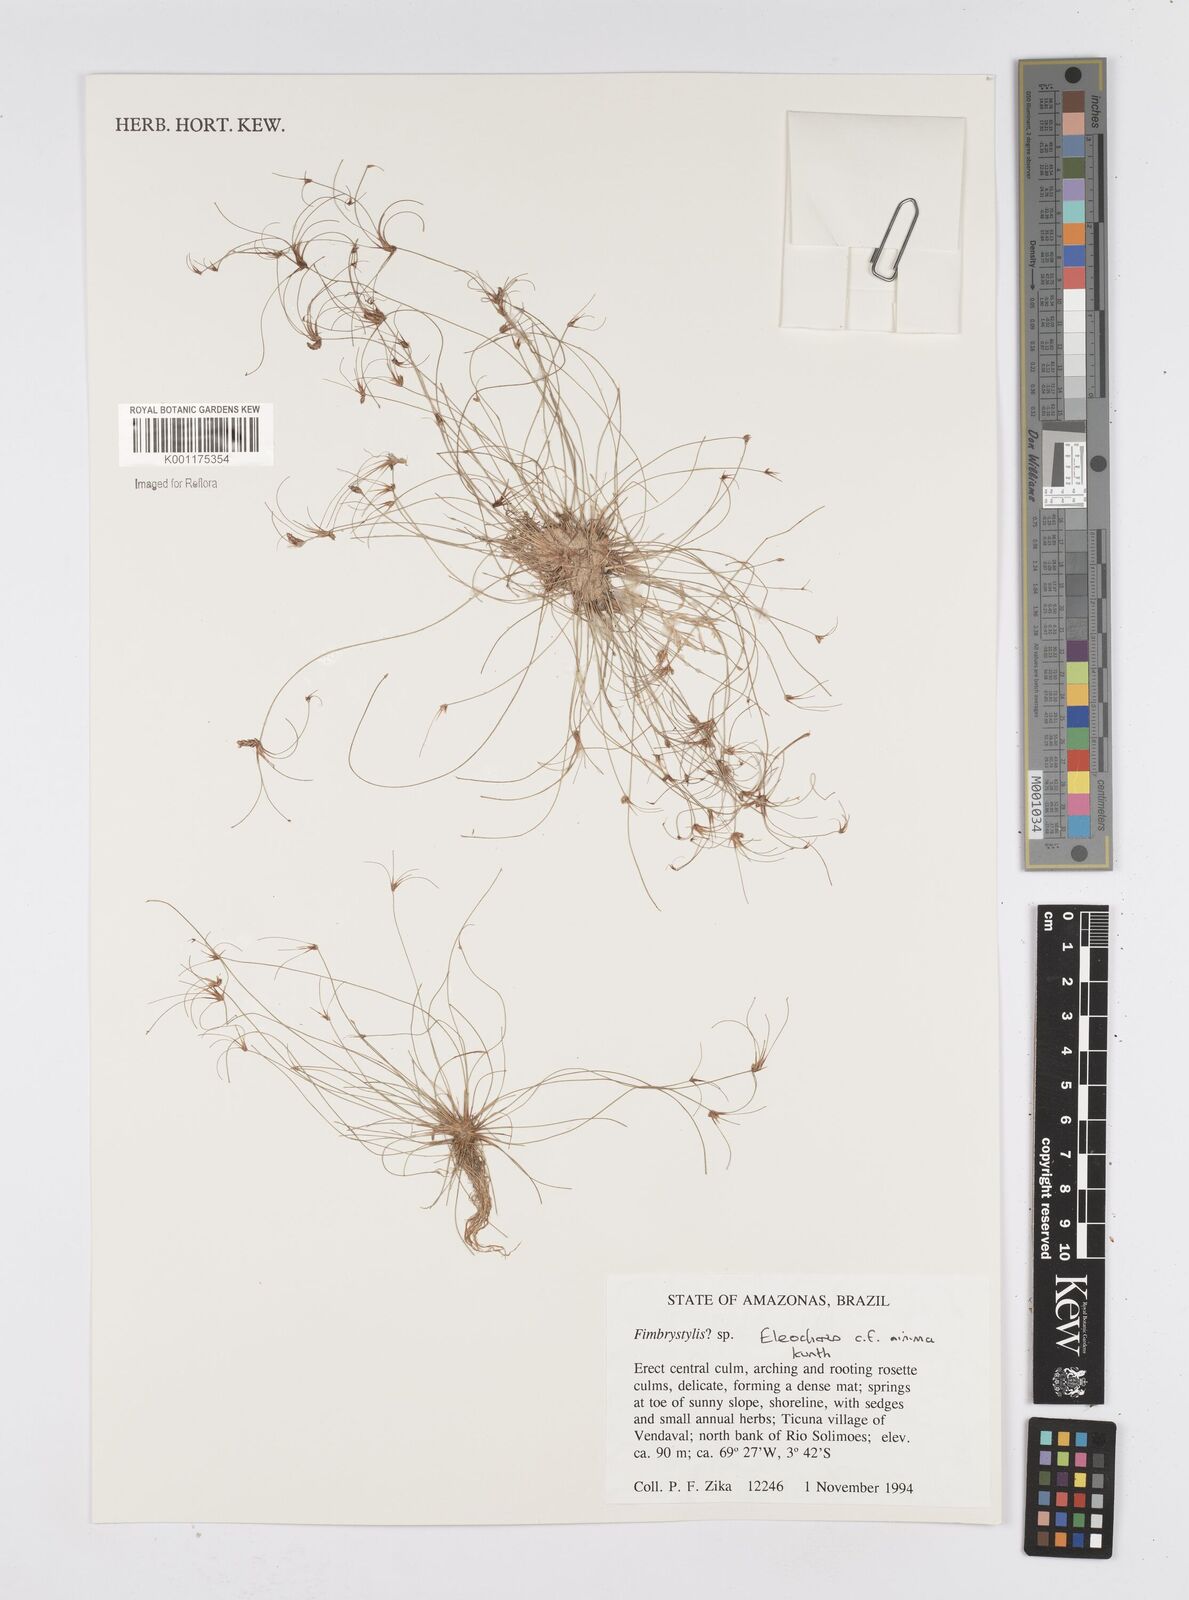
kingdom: Plantae
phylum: Tracheophyta
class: Liliopsida
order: Poales
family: Cyperaceae
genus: Eleocharis
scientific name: Eleocharis minima
